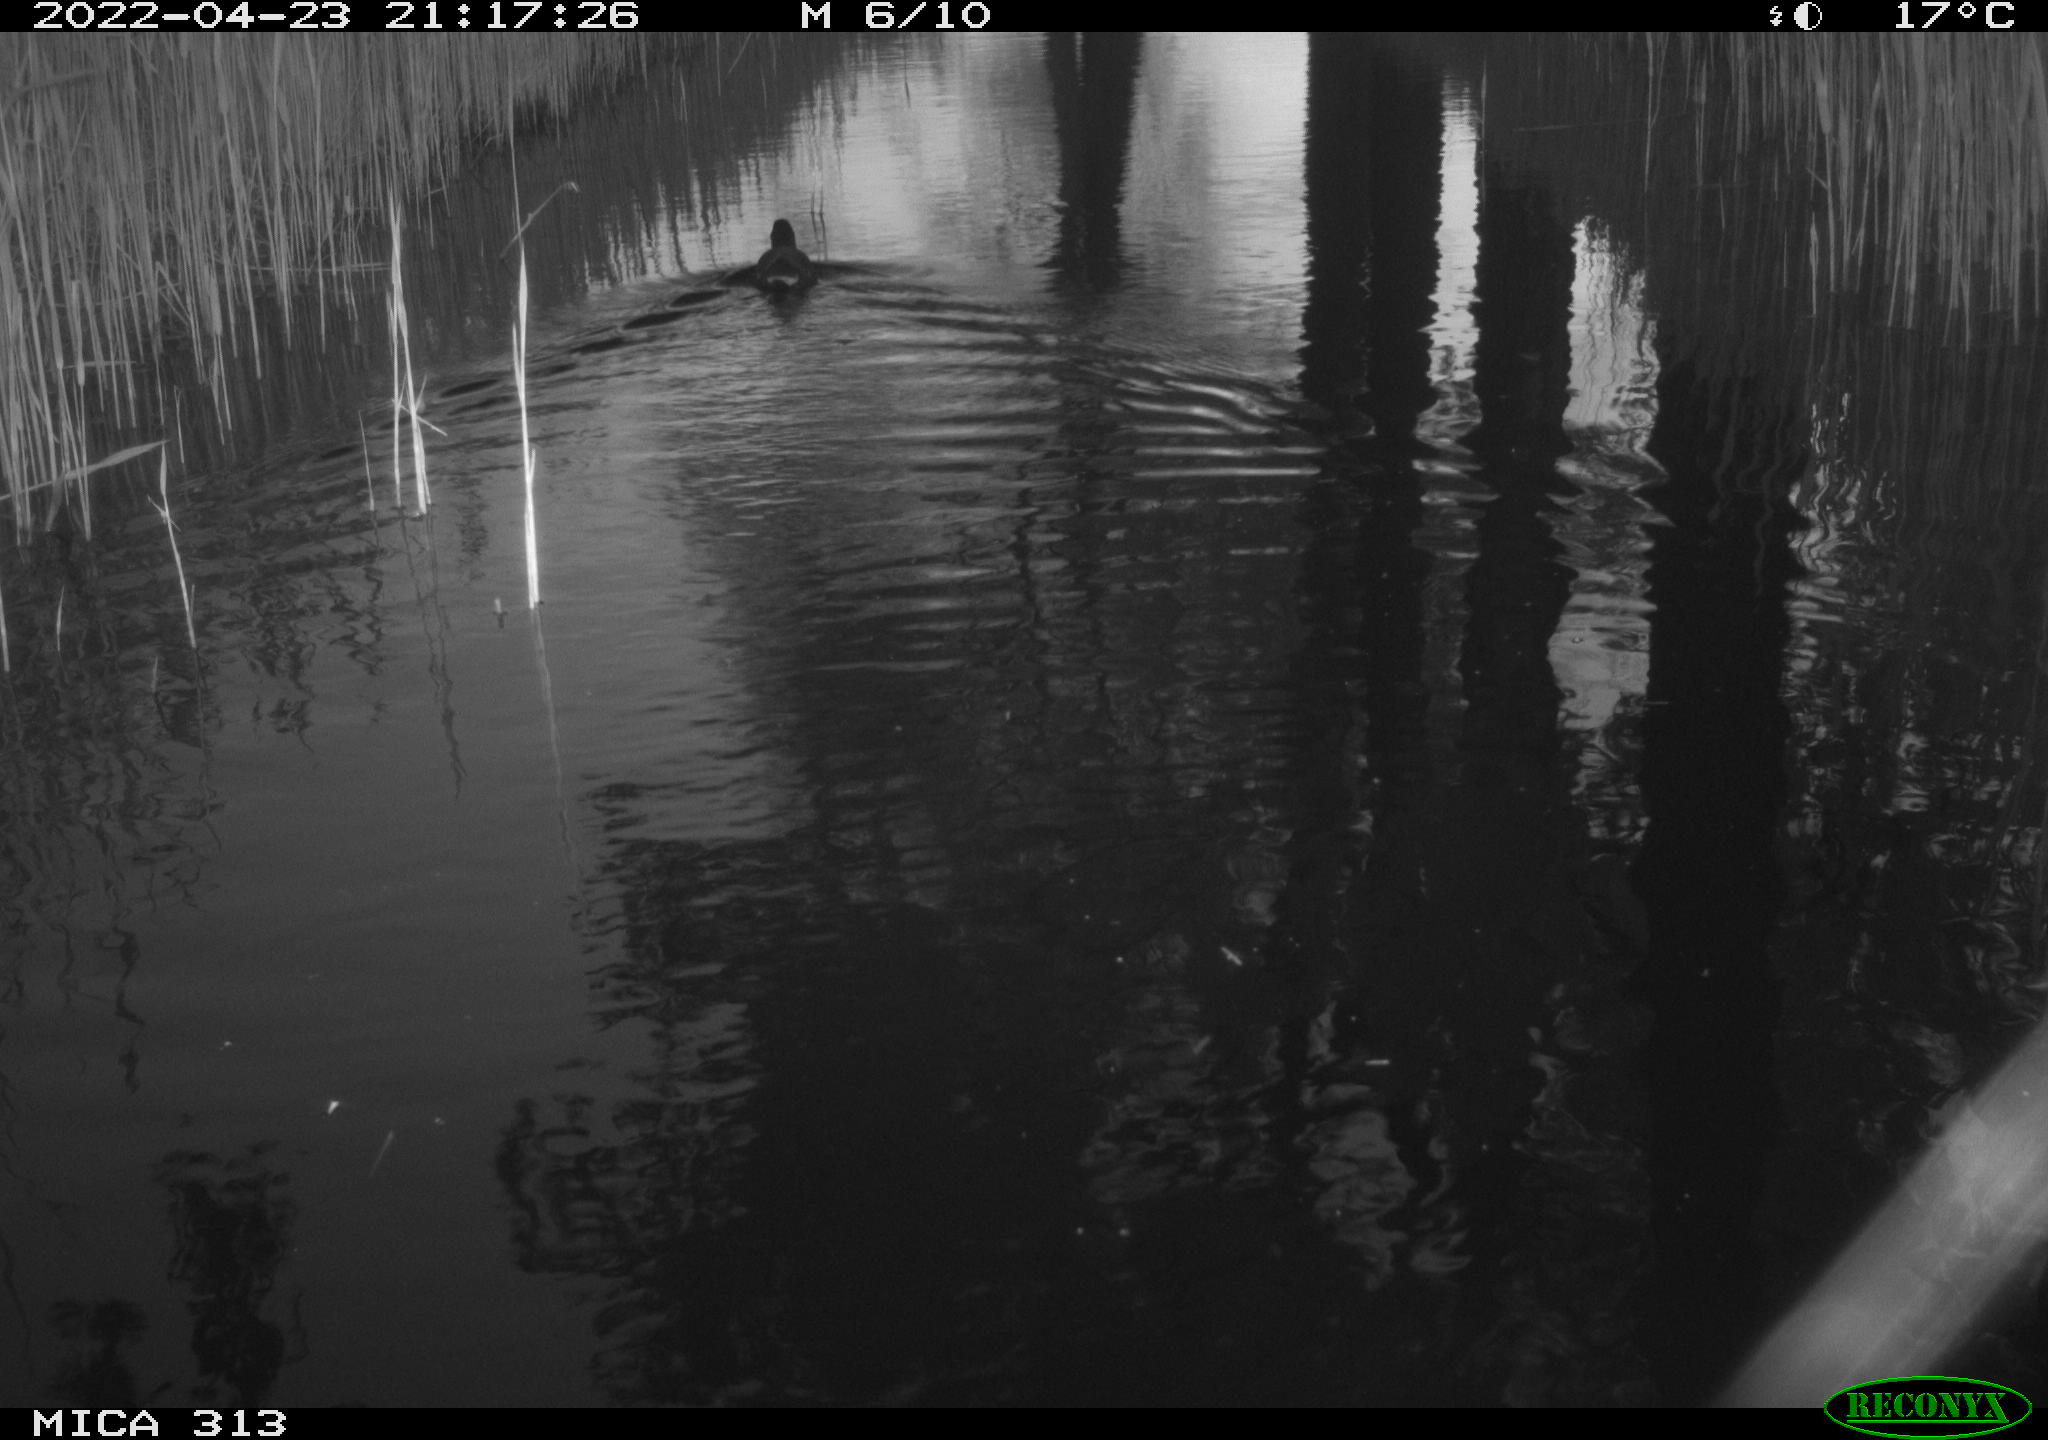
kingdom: Animalia
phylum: Chordata
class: Aves
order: Gruiformes
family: Rallidae
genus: Gallinula
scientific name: Gallinula chloropus
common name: Common moorhen
